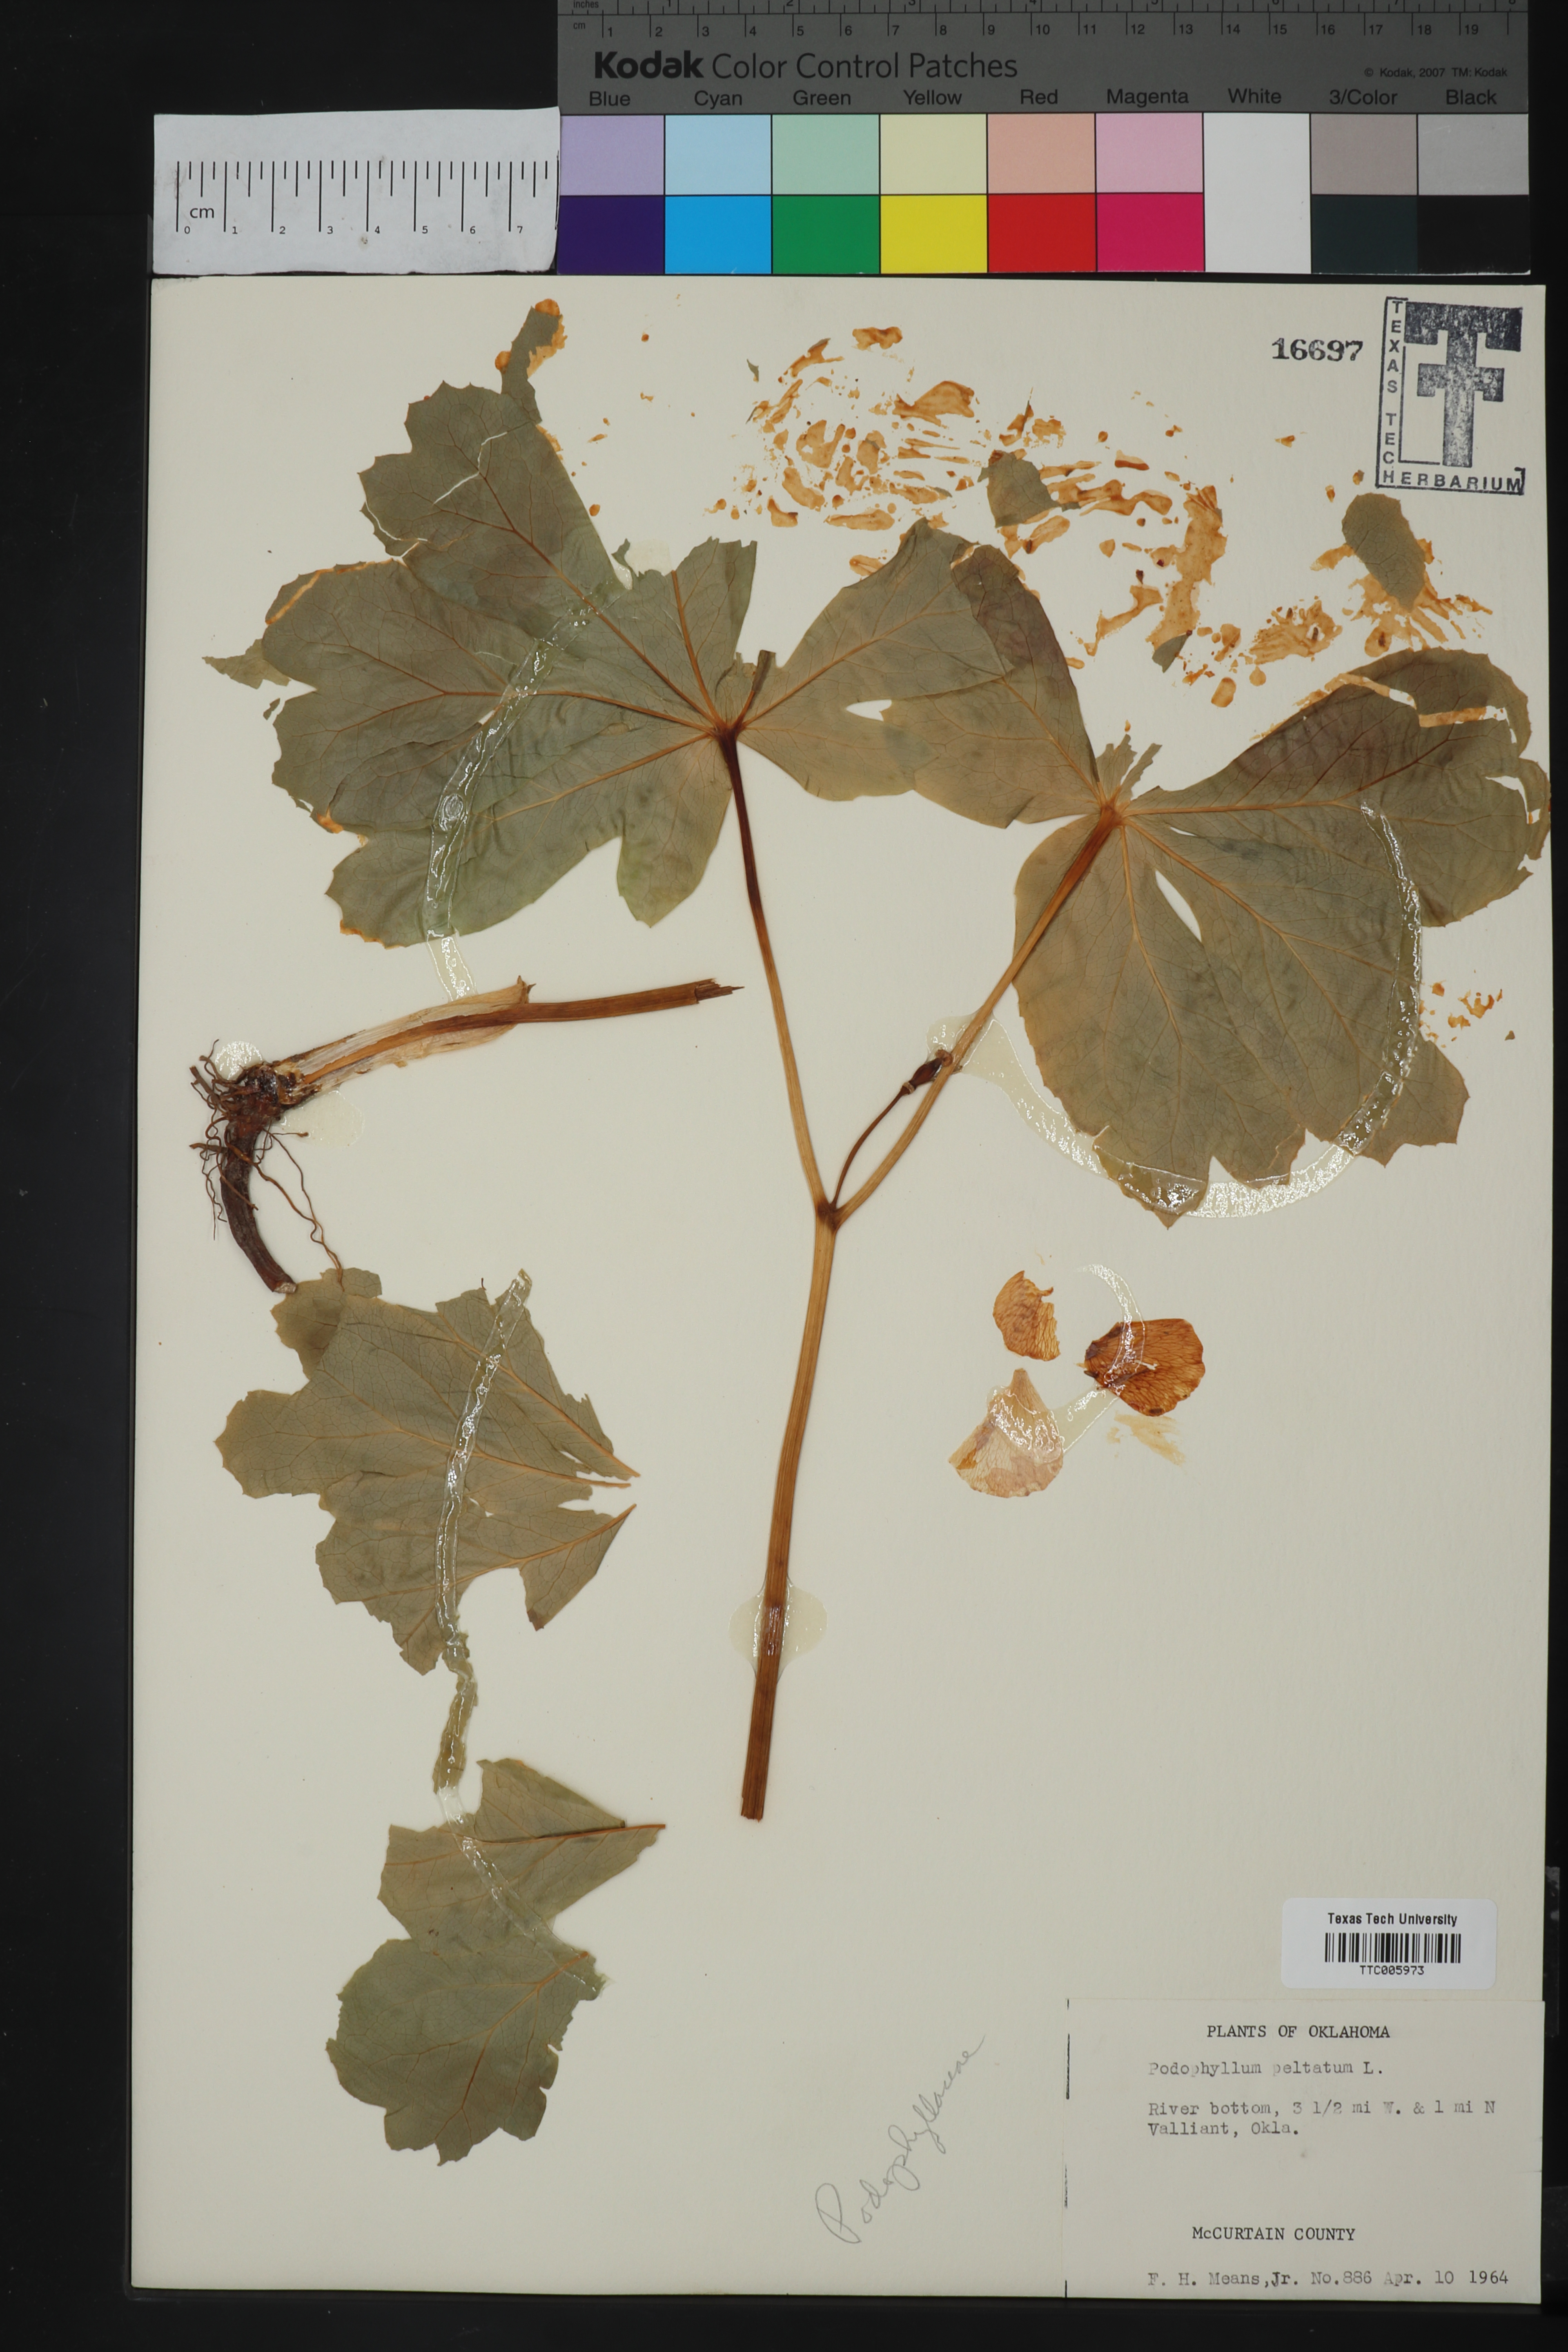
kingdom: Plantae
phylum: Tracheophyta
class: Magnoliopsida
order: Ranunculales
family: Berberidaceae
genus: Podophyllum
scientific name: Podophyllum peltatum
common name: Wild mandrake
